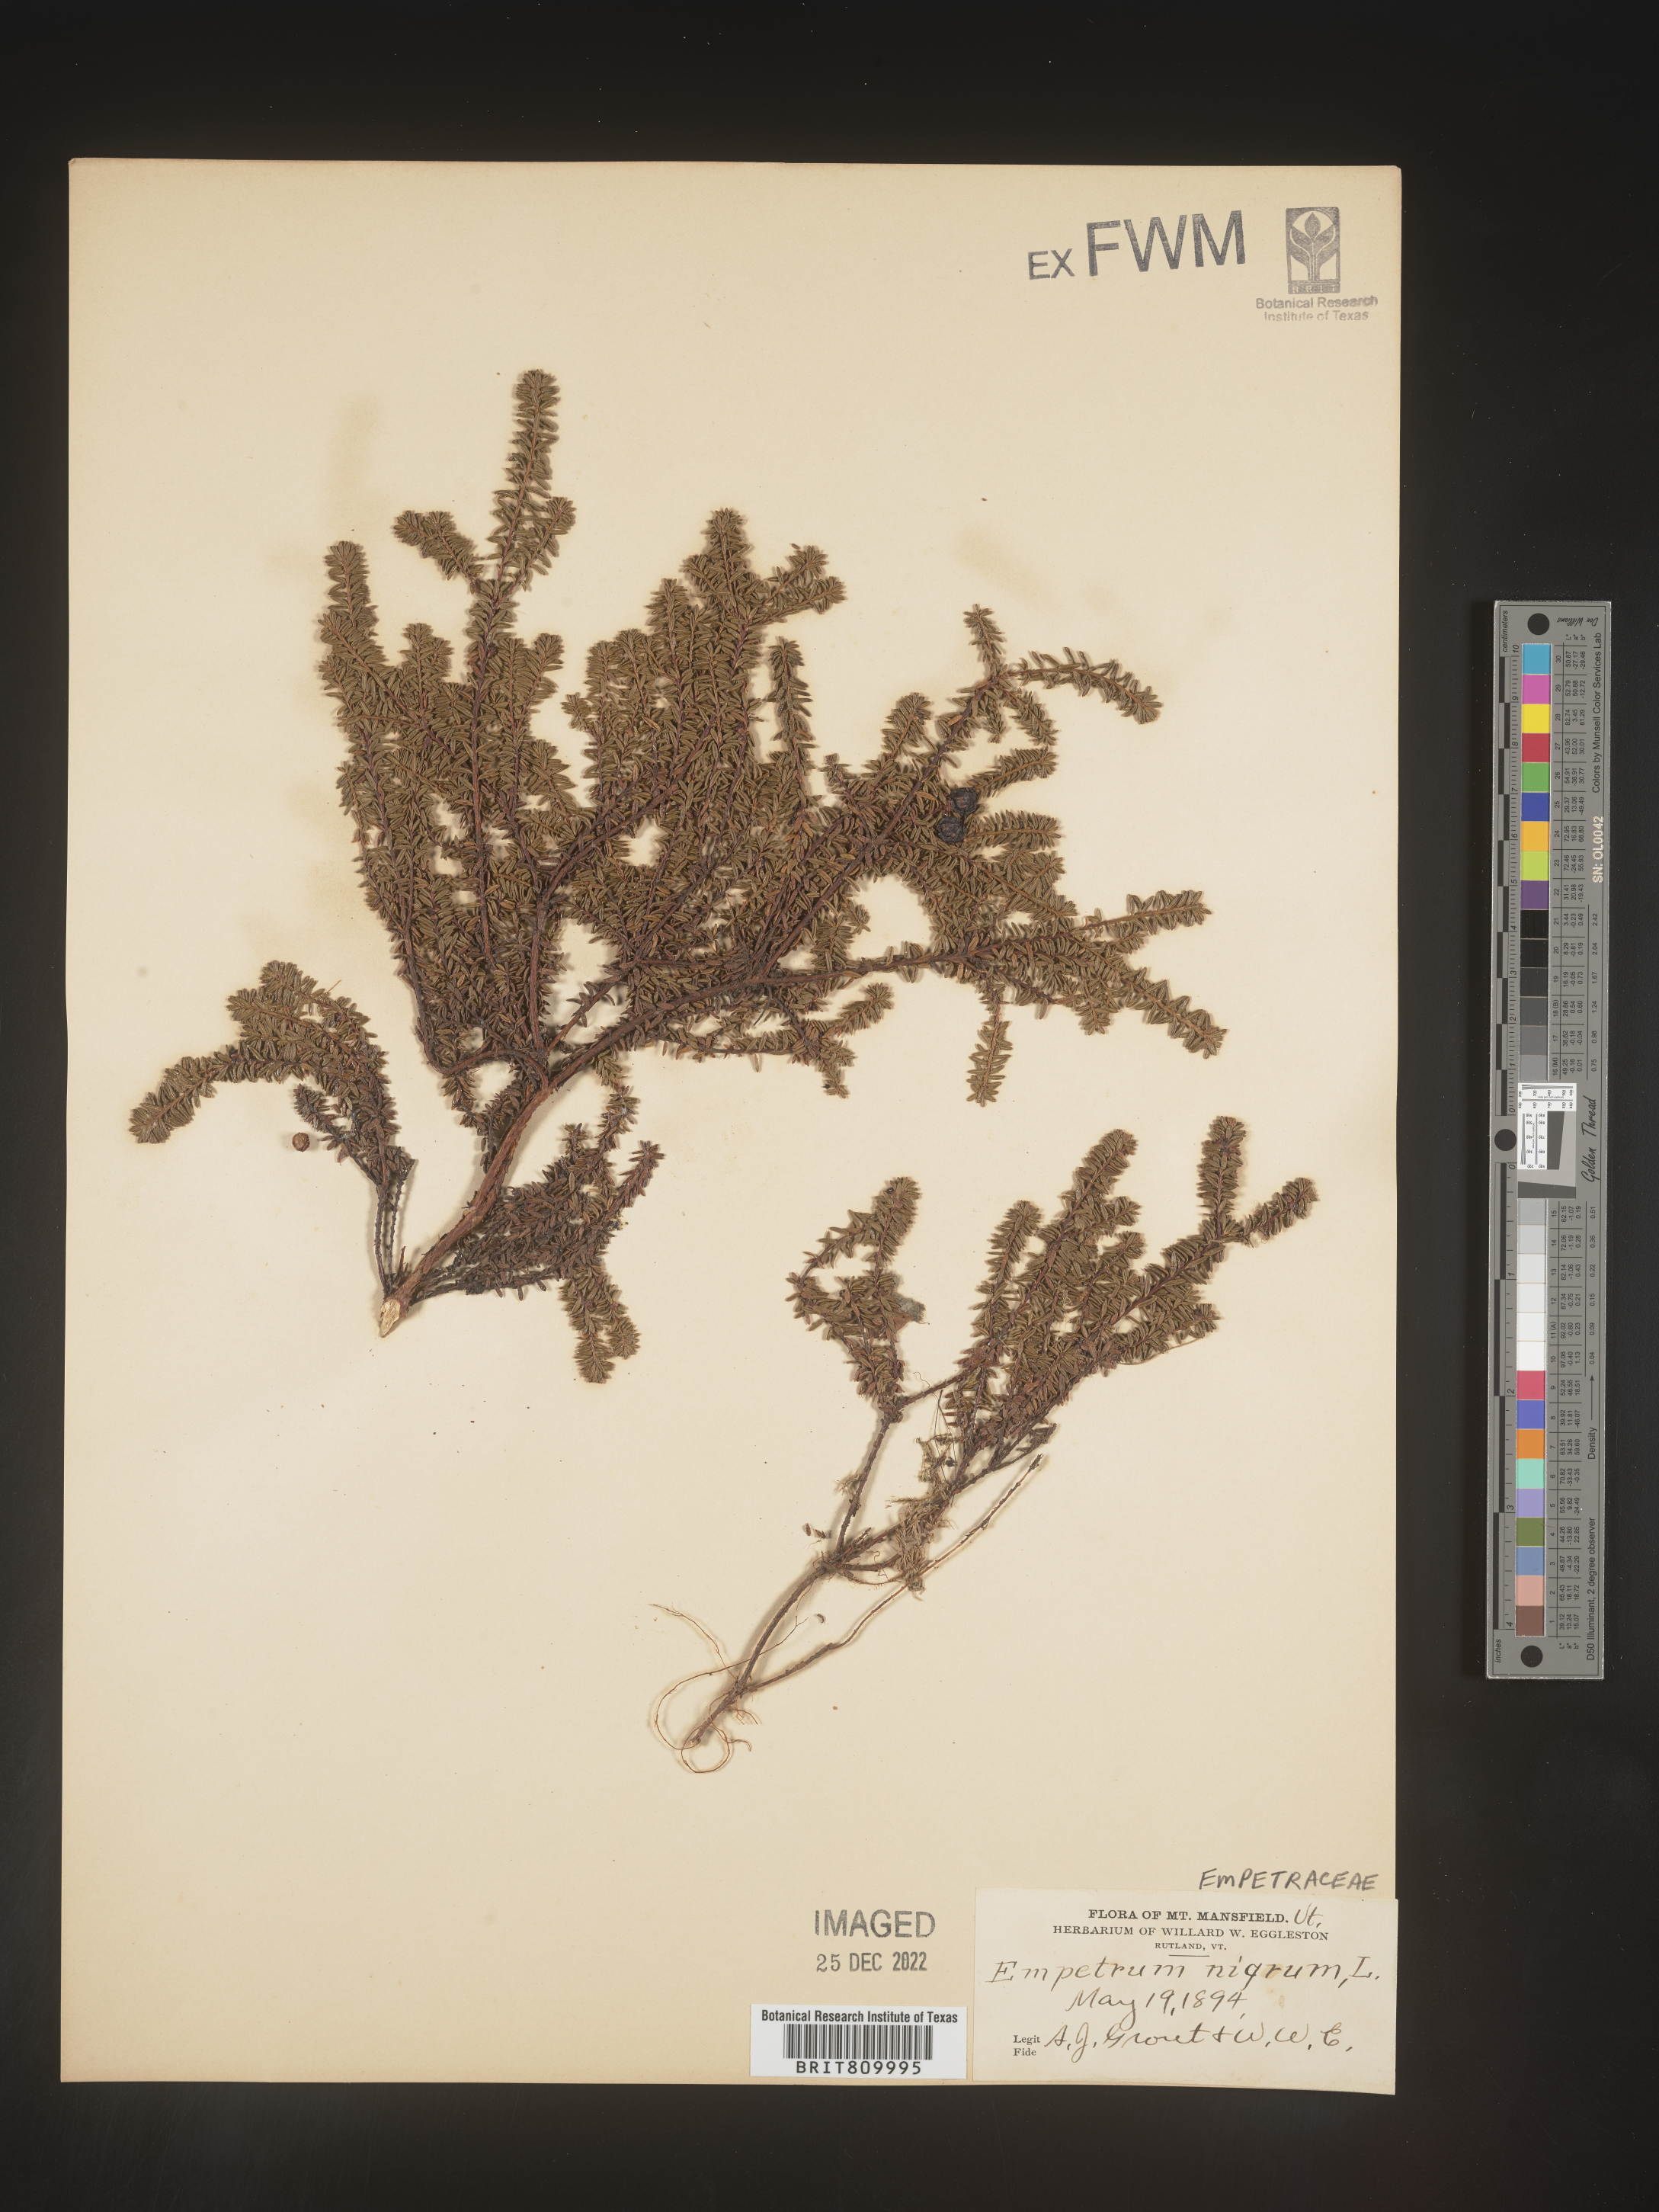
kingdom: Plantae
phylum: Tracheophyta
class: Magnoliopsida
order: Ericales
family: Ericaceae
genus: Empetrum
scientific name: Empetrum
